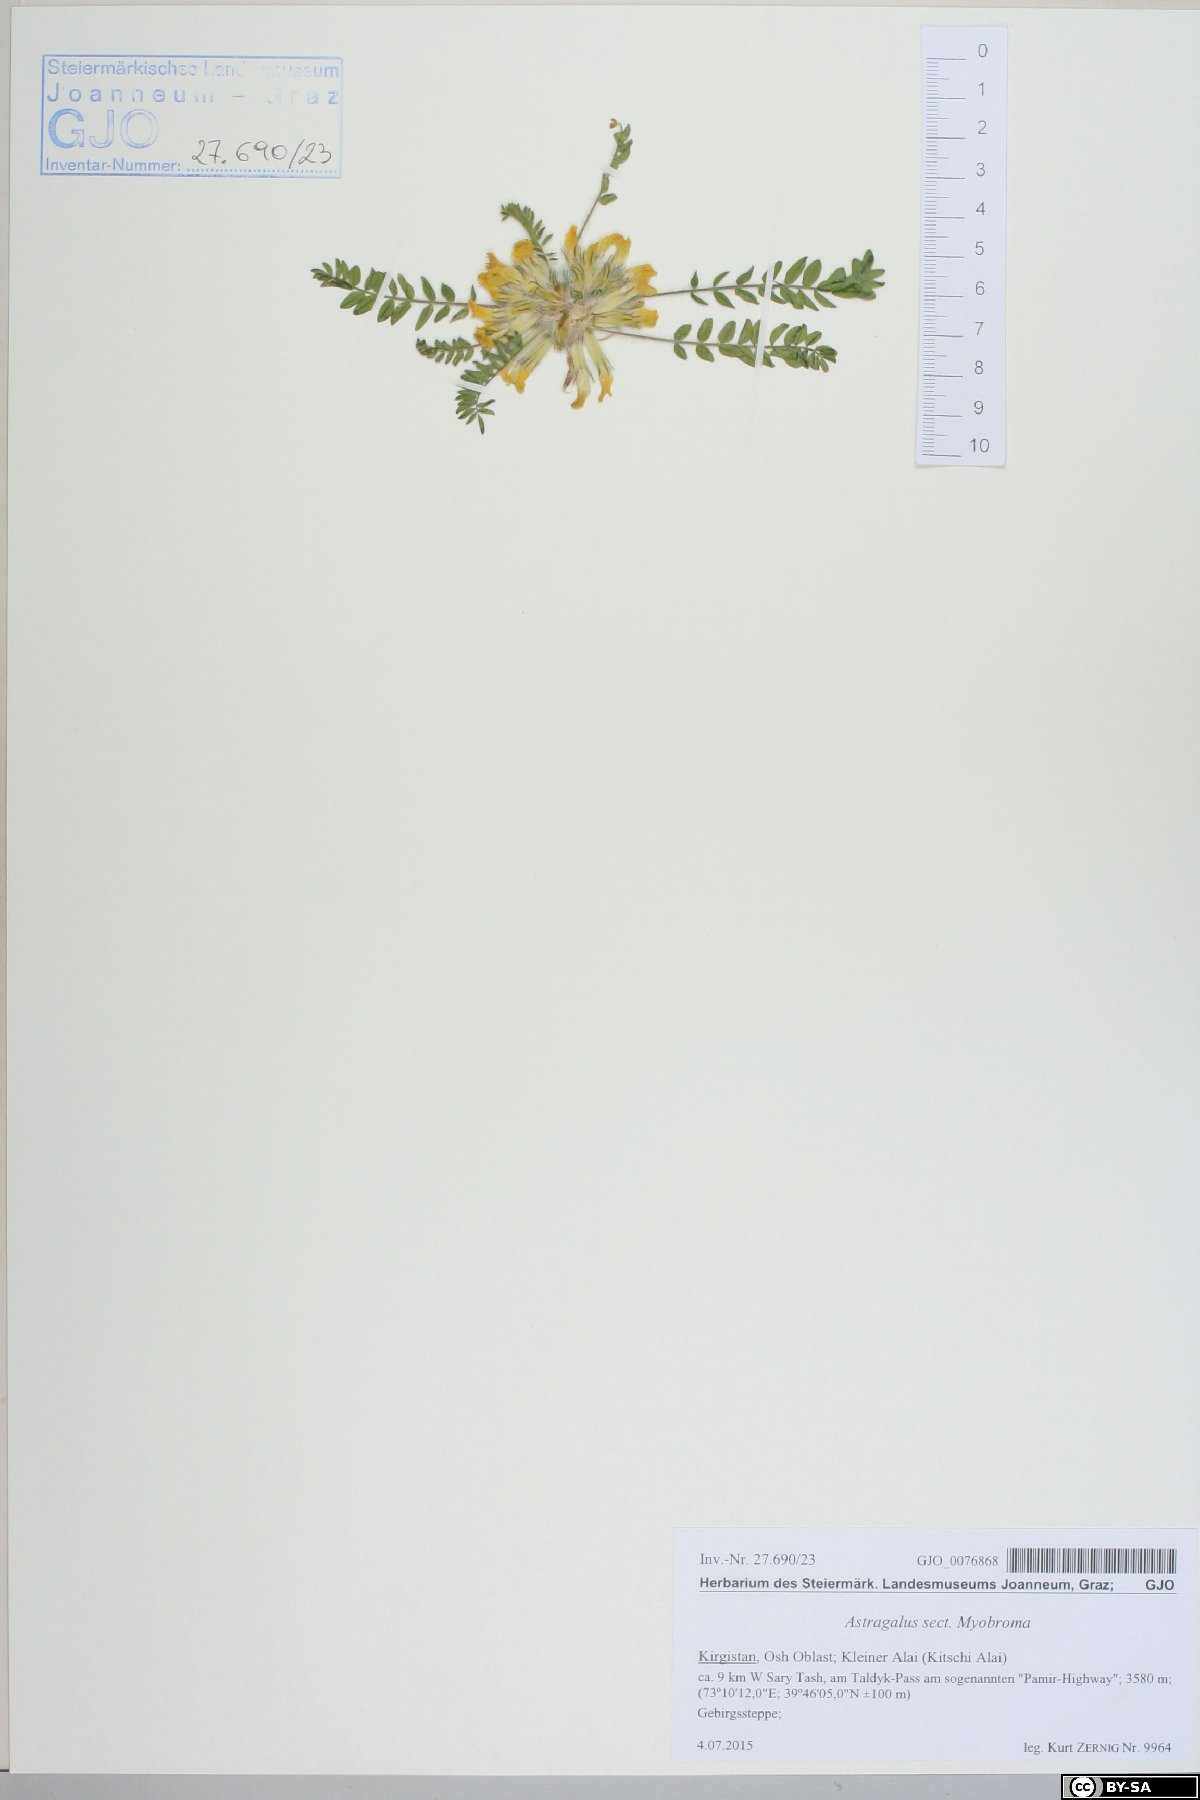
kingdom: Plantae
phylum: Tracheophyta
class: Magnoliopsida
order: Fabales
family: Fabaceae
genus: Astragalus
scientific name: Astragalus
